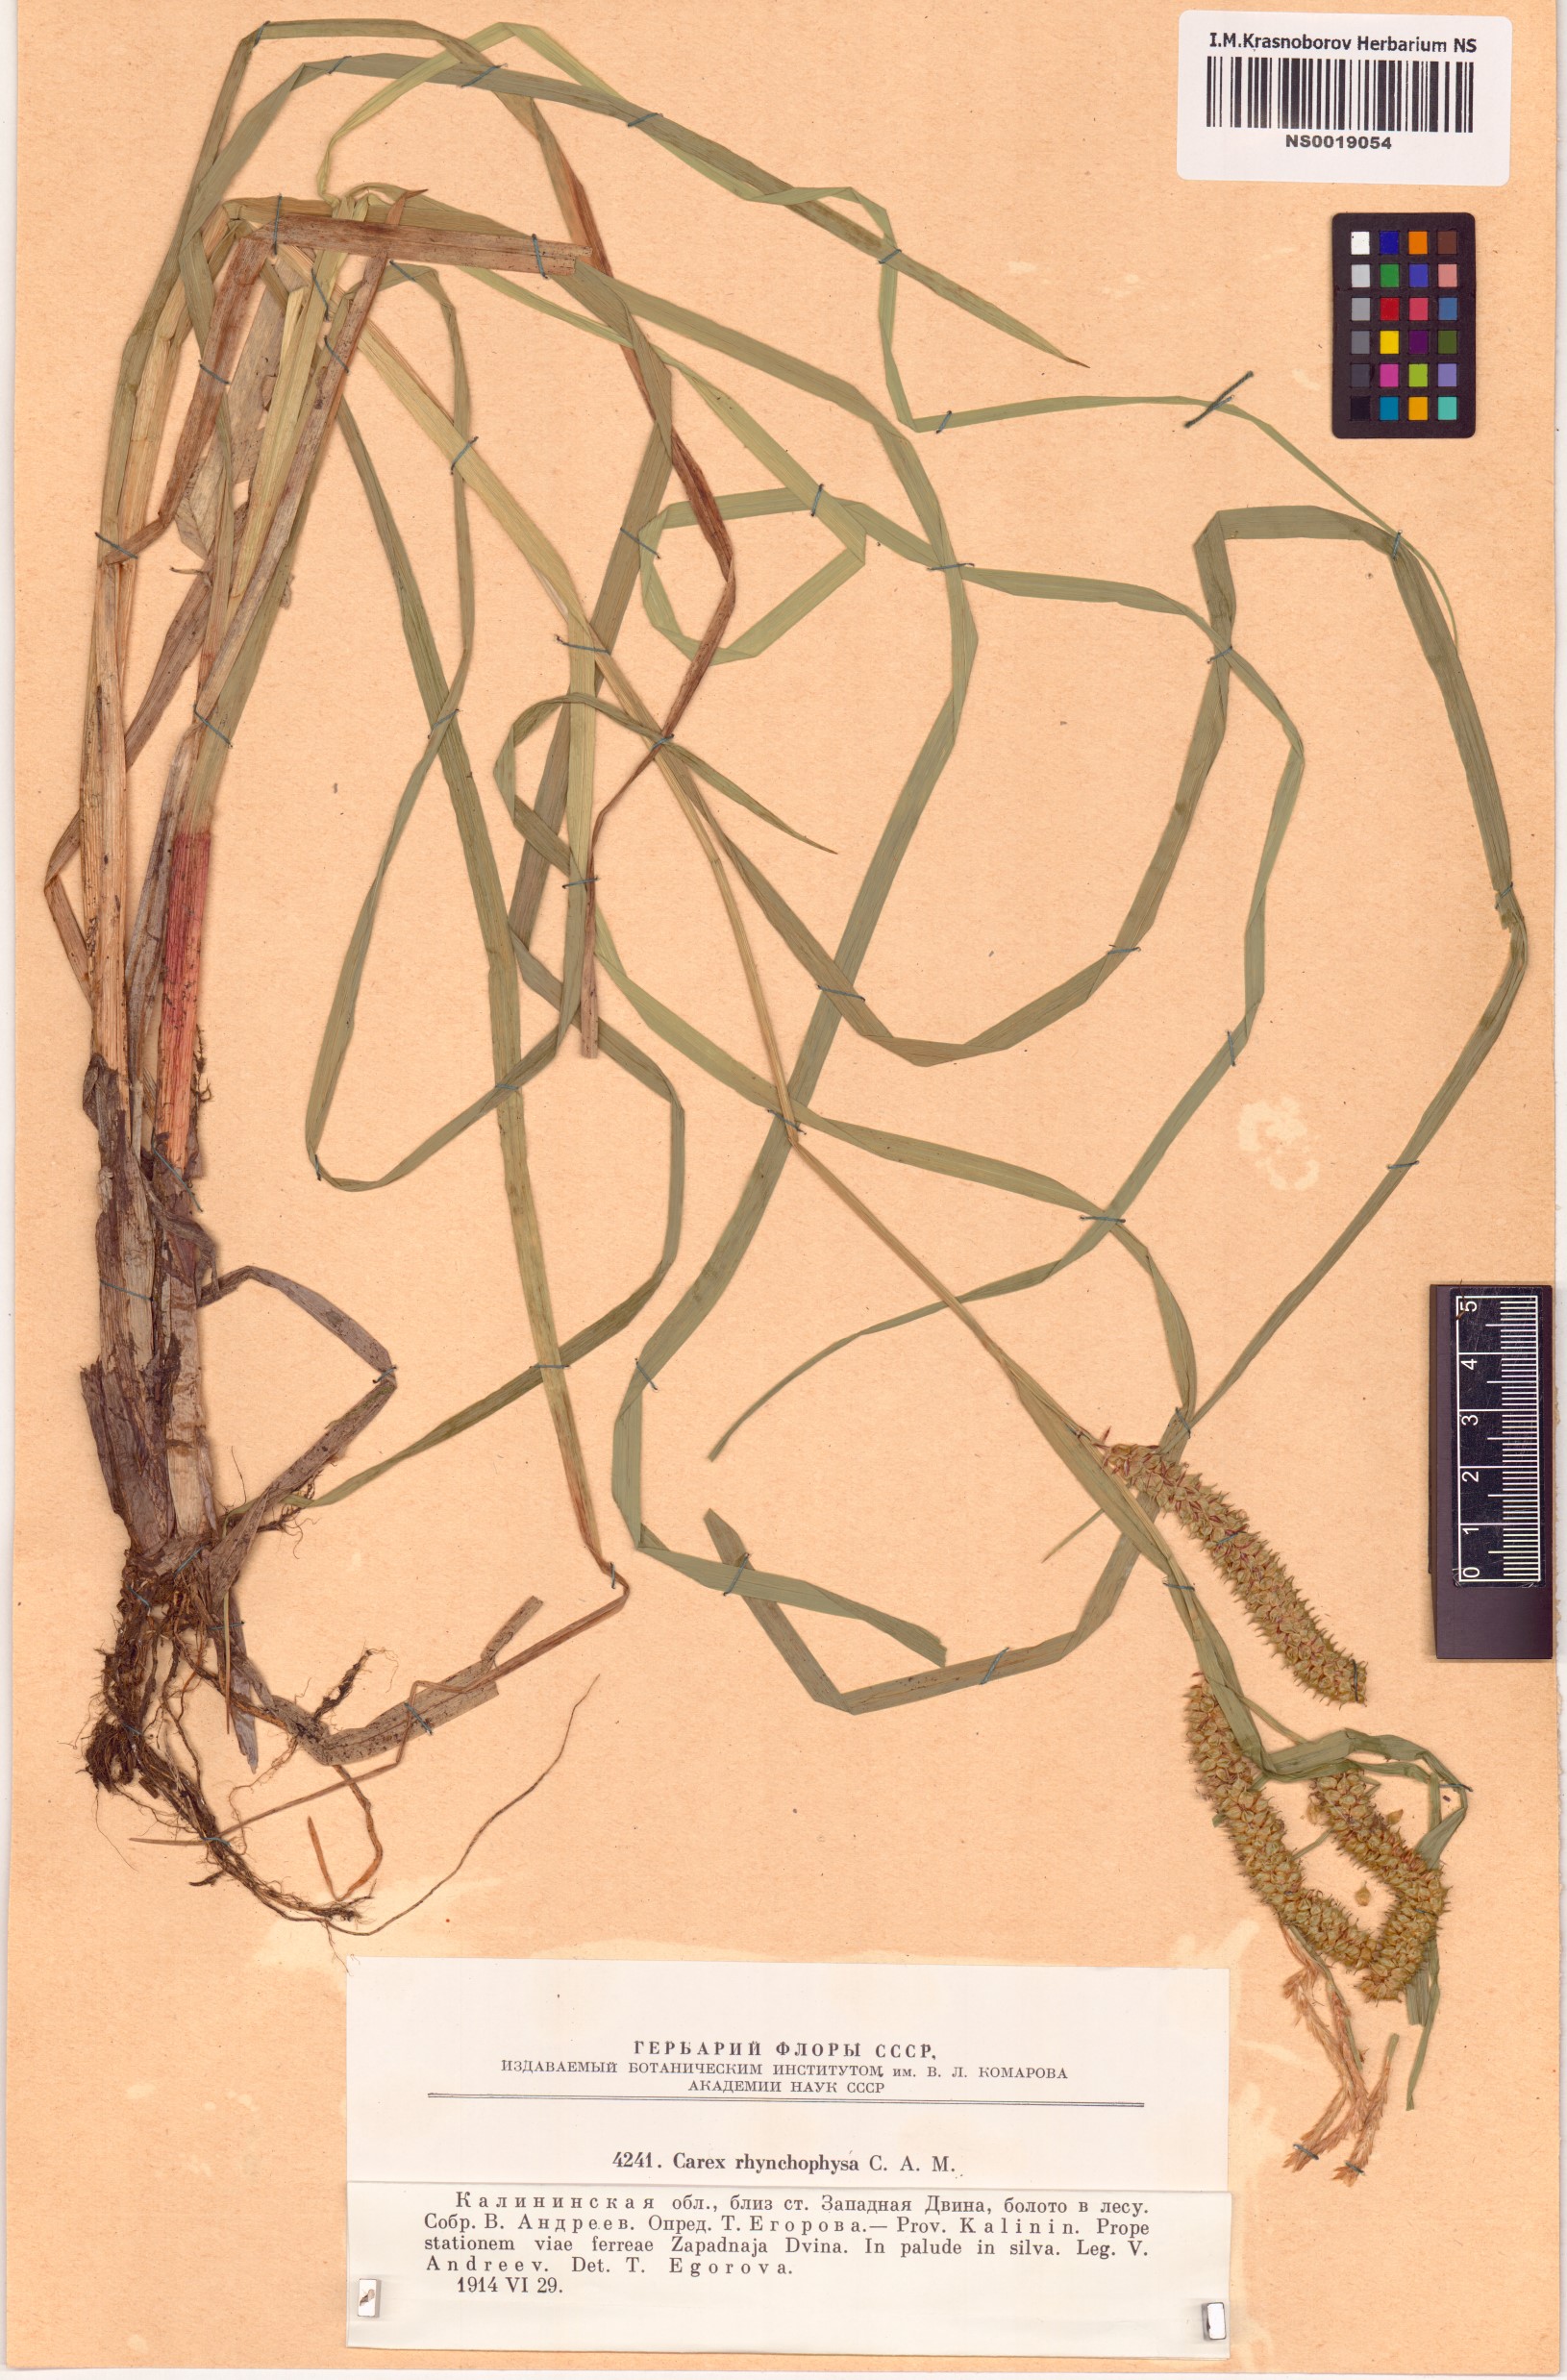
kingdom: Plantae
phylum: Tracheophyta
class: Liliopsida
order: Poales
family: Cyperaceae
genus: Carex
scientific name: Carex utriculata
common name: Beaked sedge
